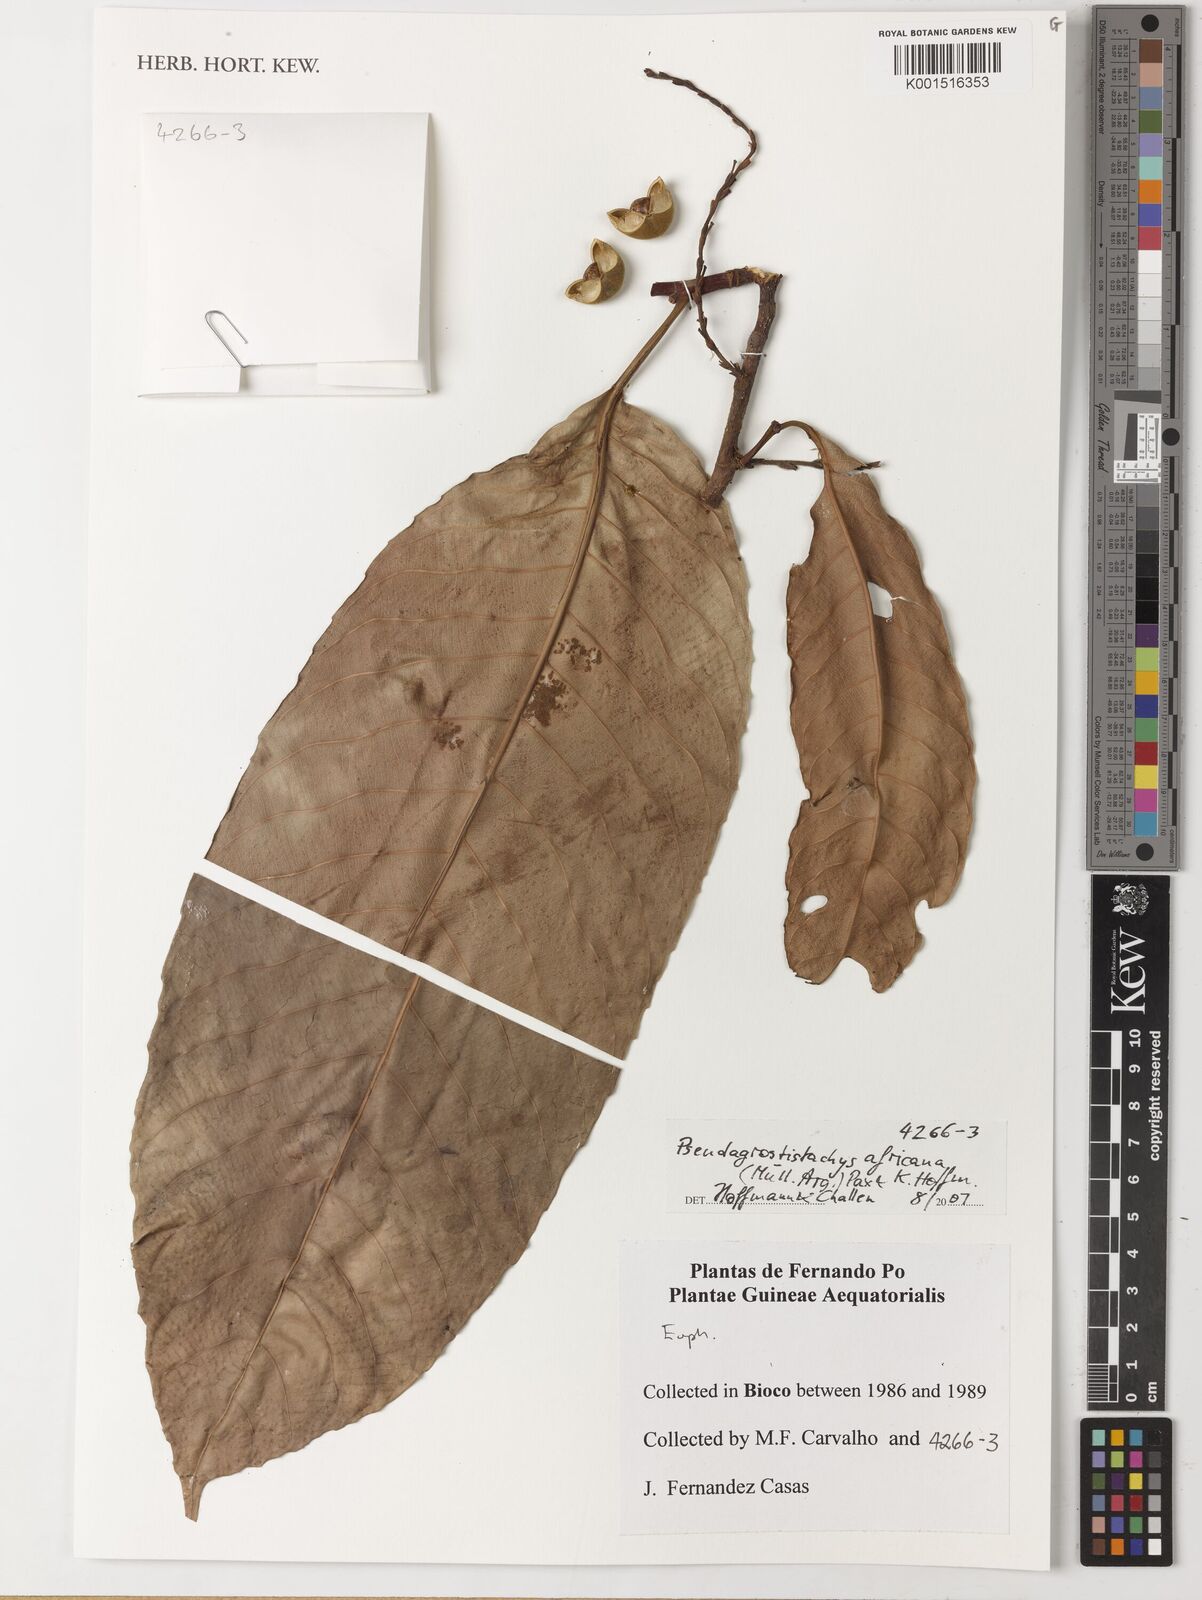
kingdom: Plantae
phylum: Tracheophyta
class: Magnoliopsida
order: Malpighiales
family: Euphorbiaceae
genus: Pseudagrostistachys
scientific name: Pseudagrostistachys africana
